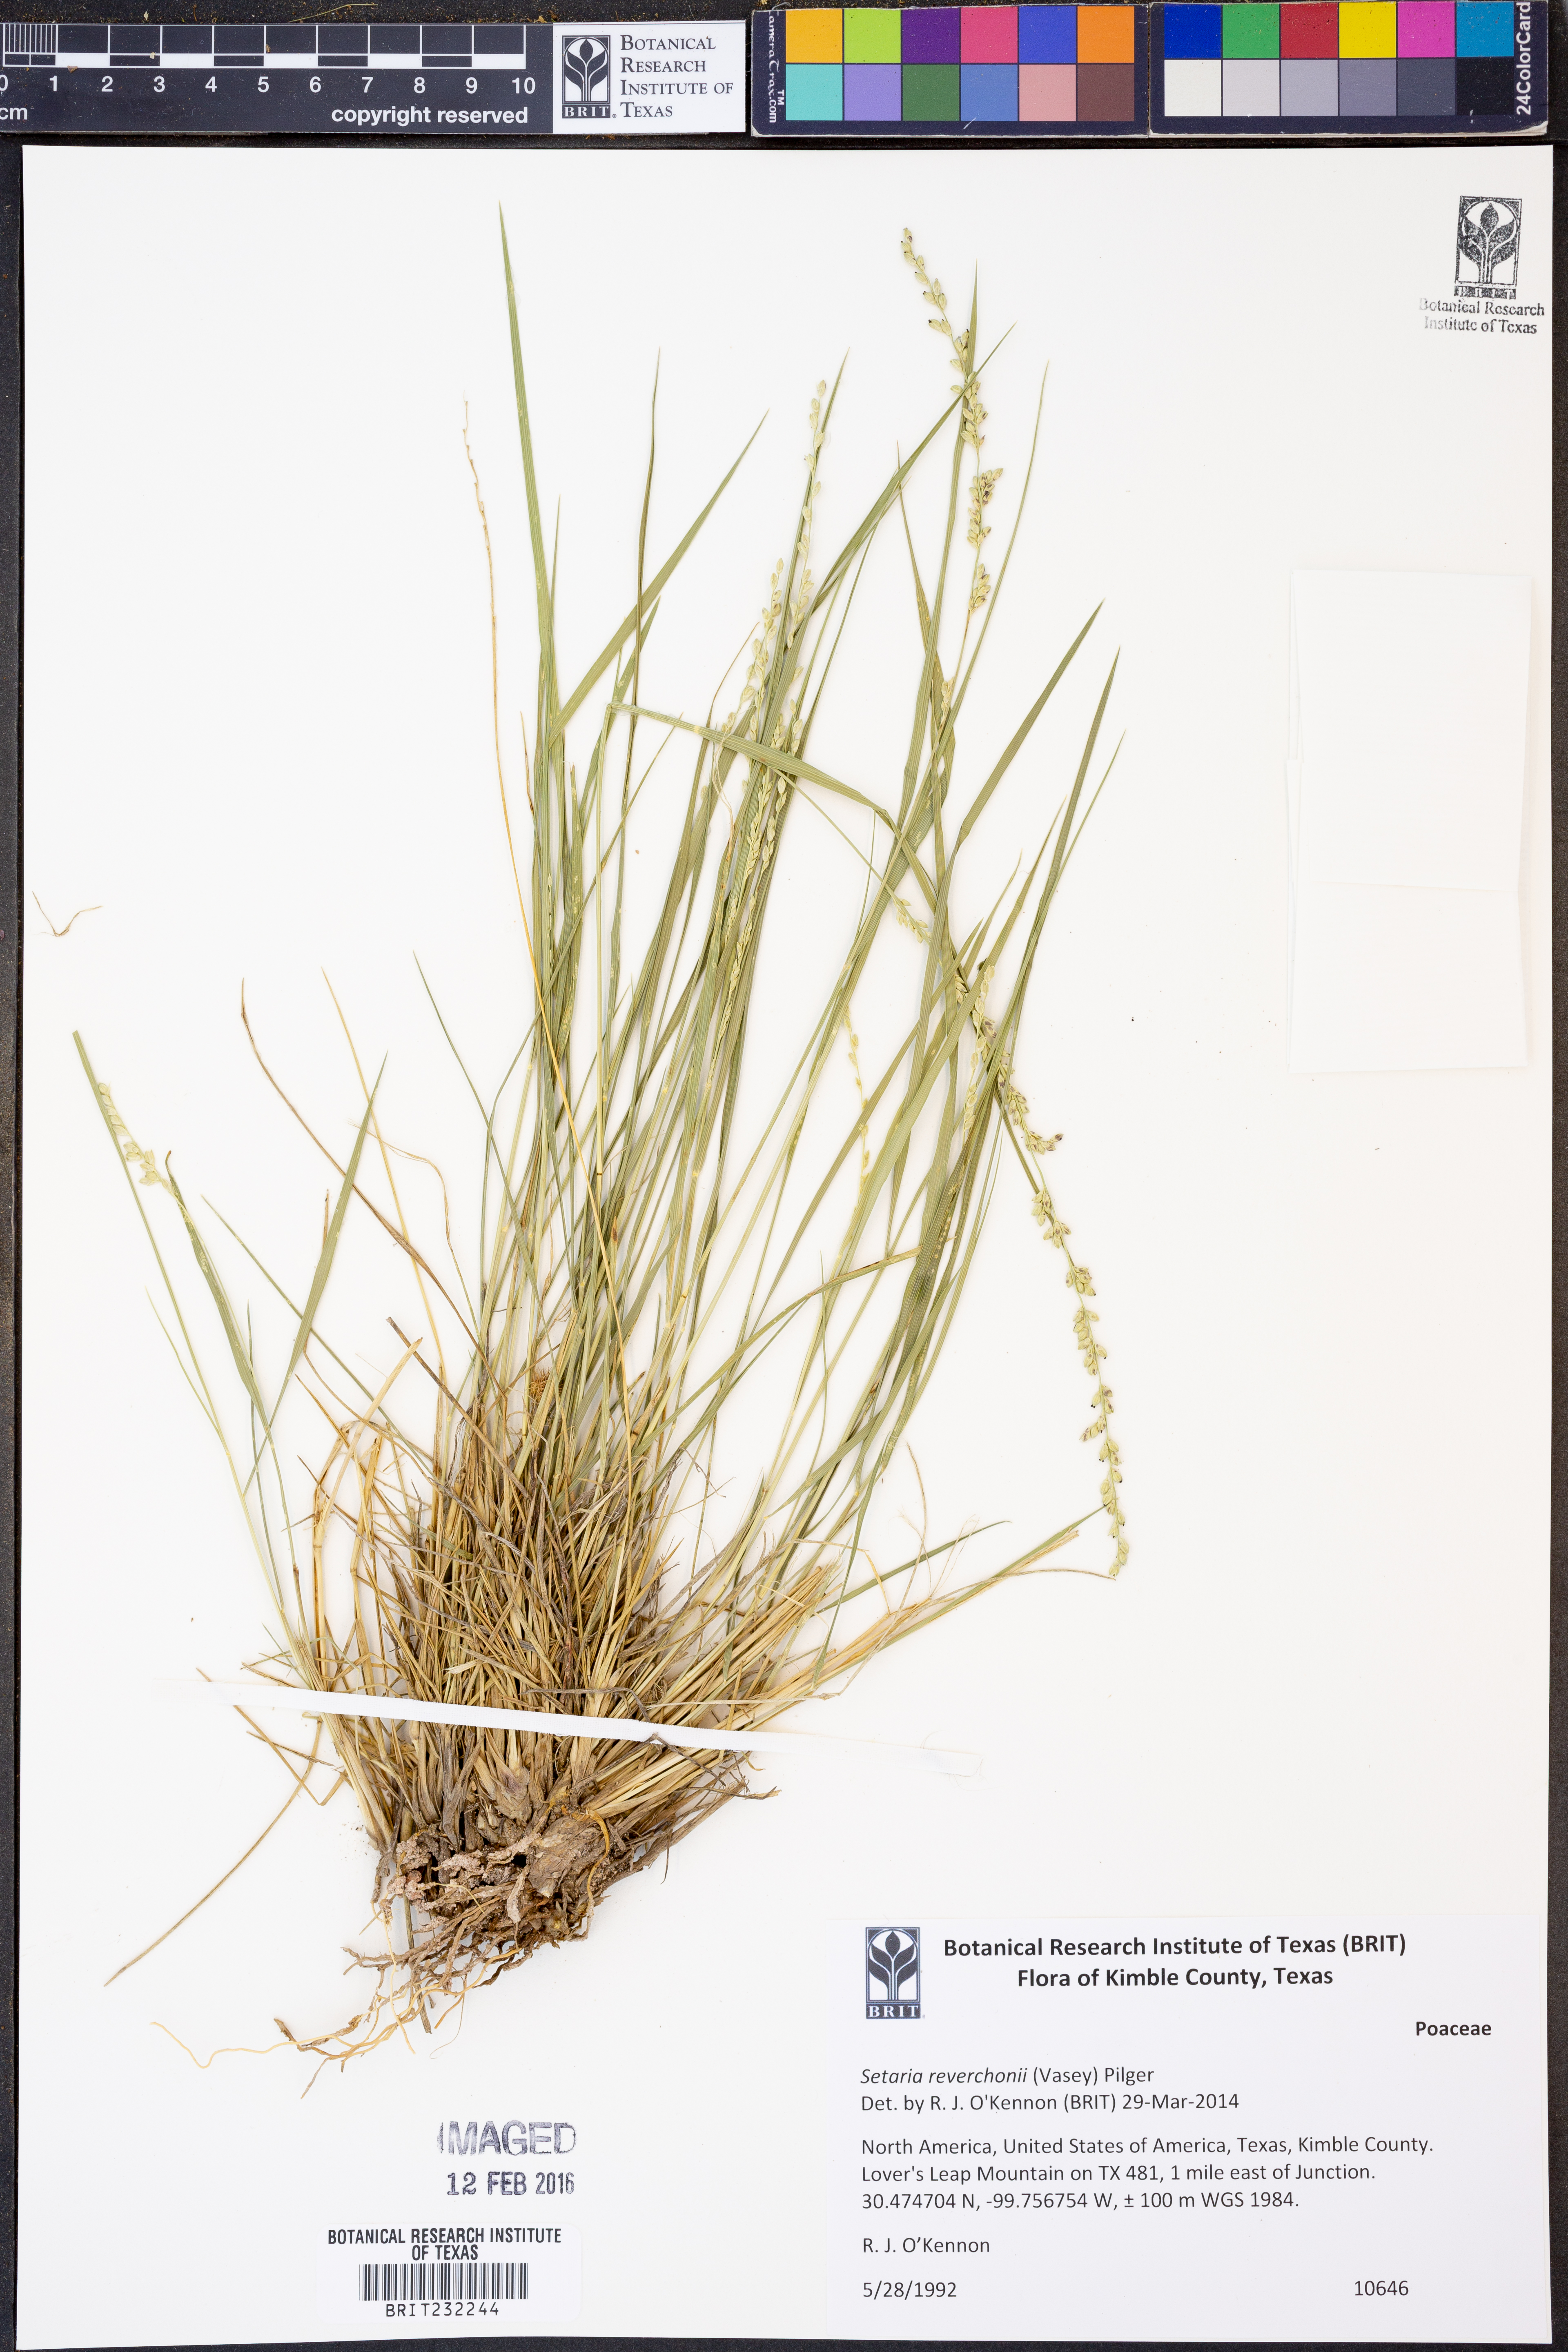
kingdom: Plantae
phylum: Tracheophyta
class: Liliopsida
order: Poales
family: Poaceae
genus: Setaria
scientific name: Setaria reverchonii
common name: Reverchon's bristle grass
